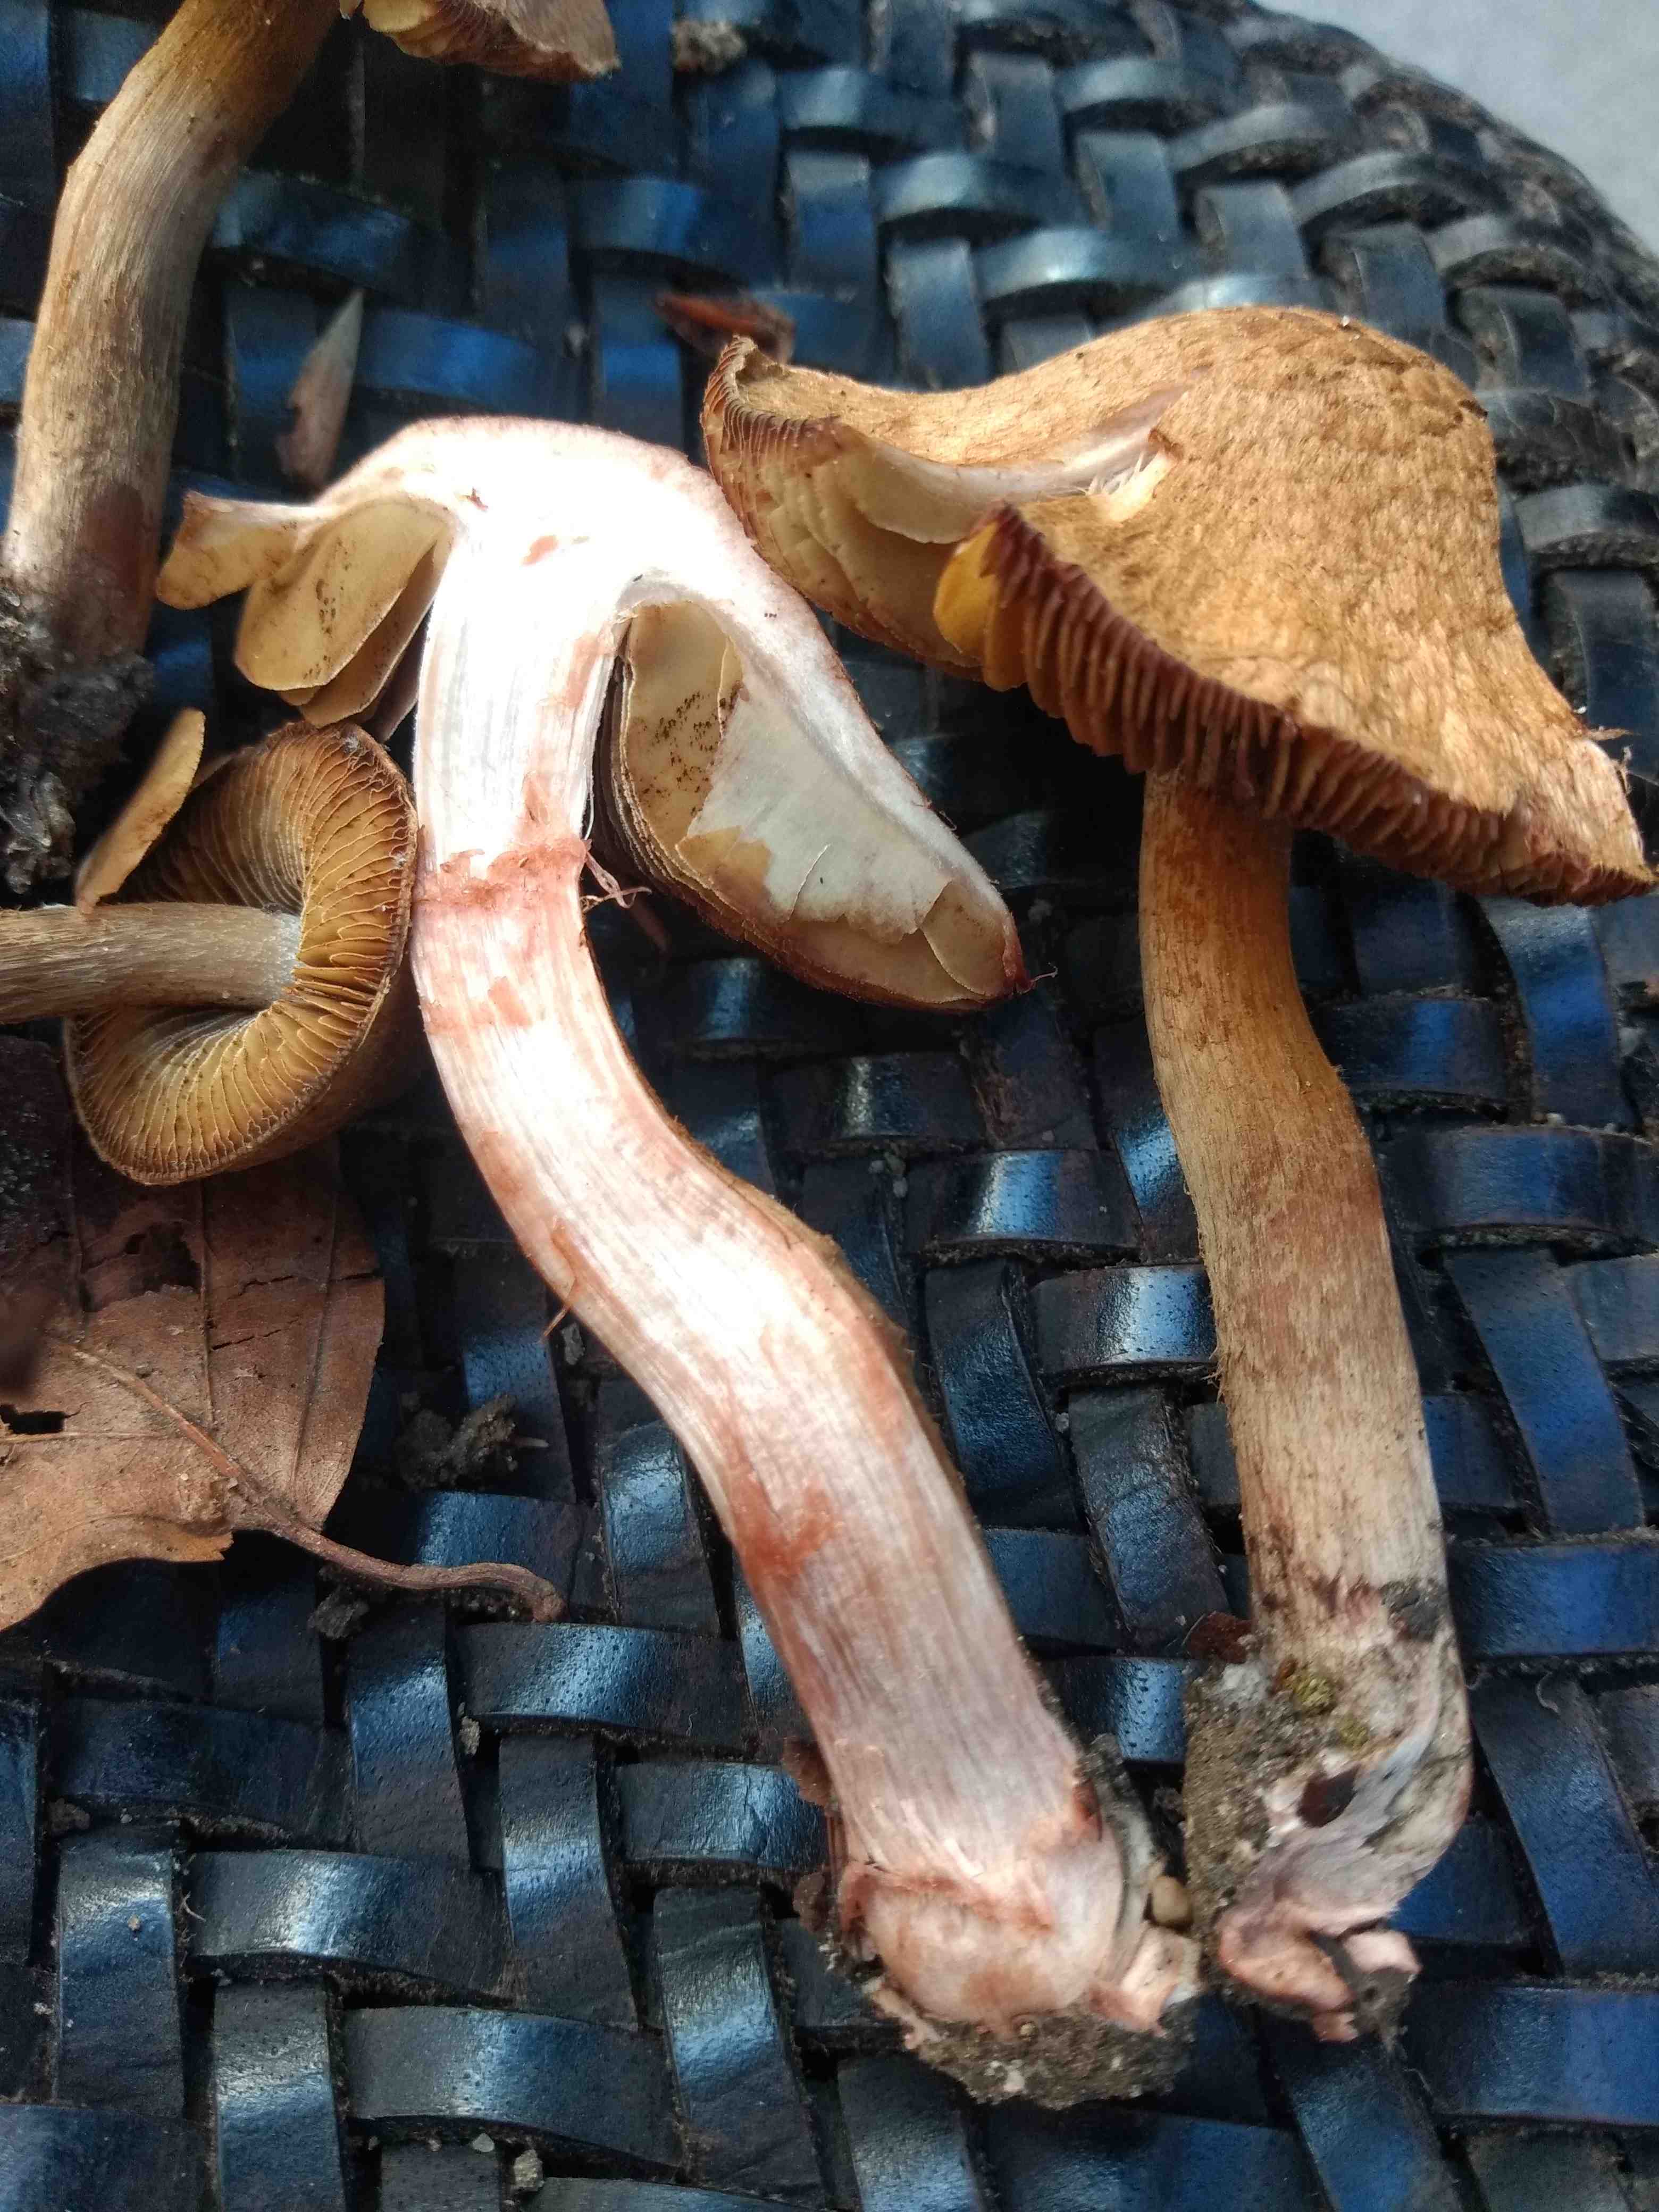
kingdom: Fungi
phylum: Basidiomycota
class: Agaricomycetes
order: Agaricales
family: Inocybaceae
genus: Inosperma
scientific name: Inosperma bongardii
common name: Bongards trævlhat
